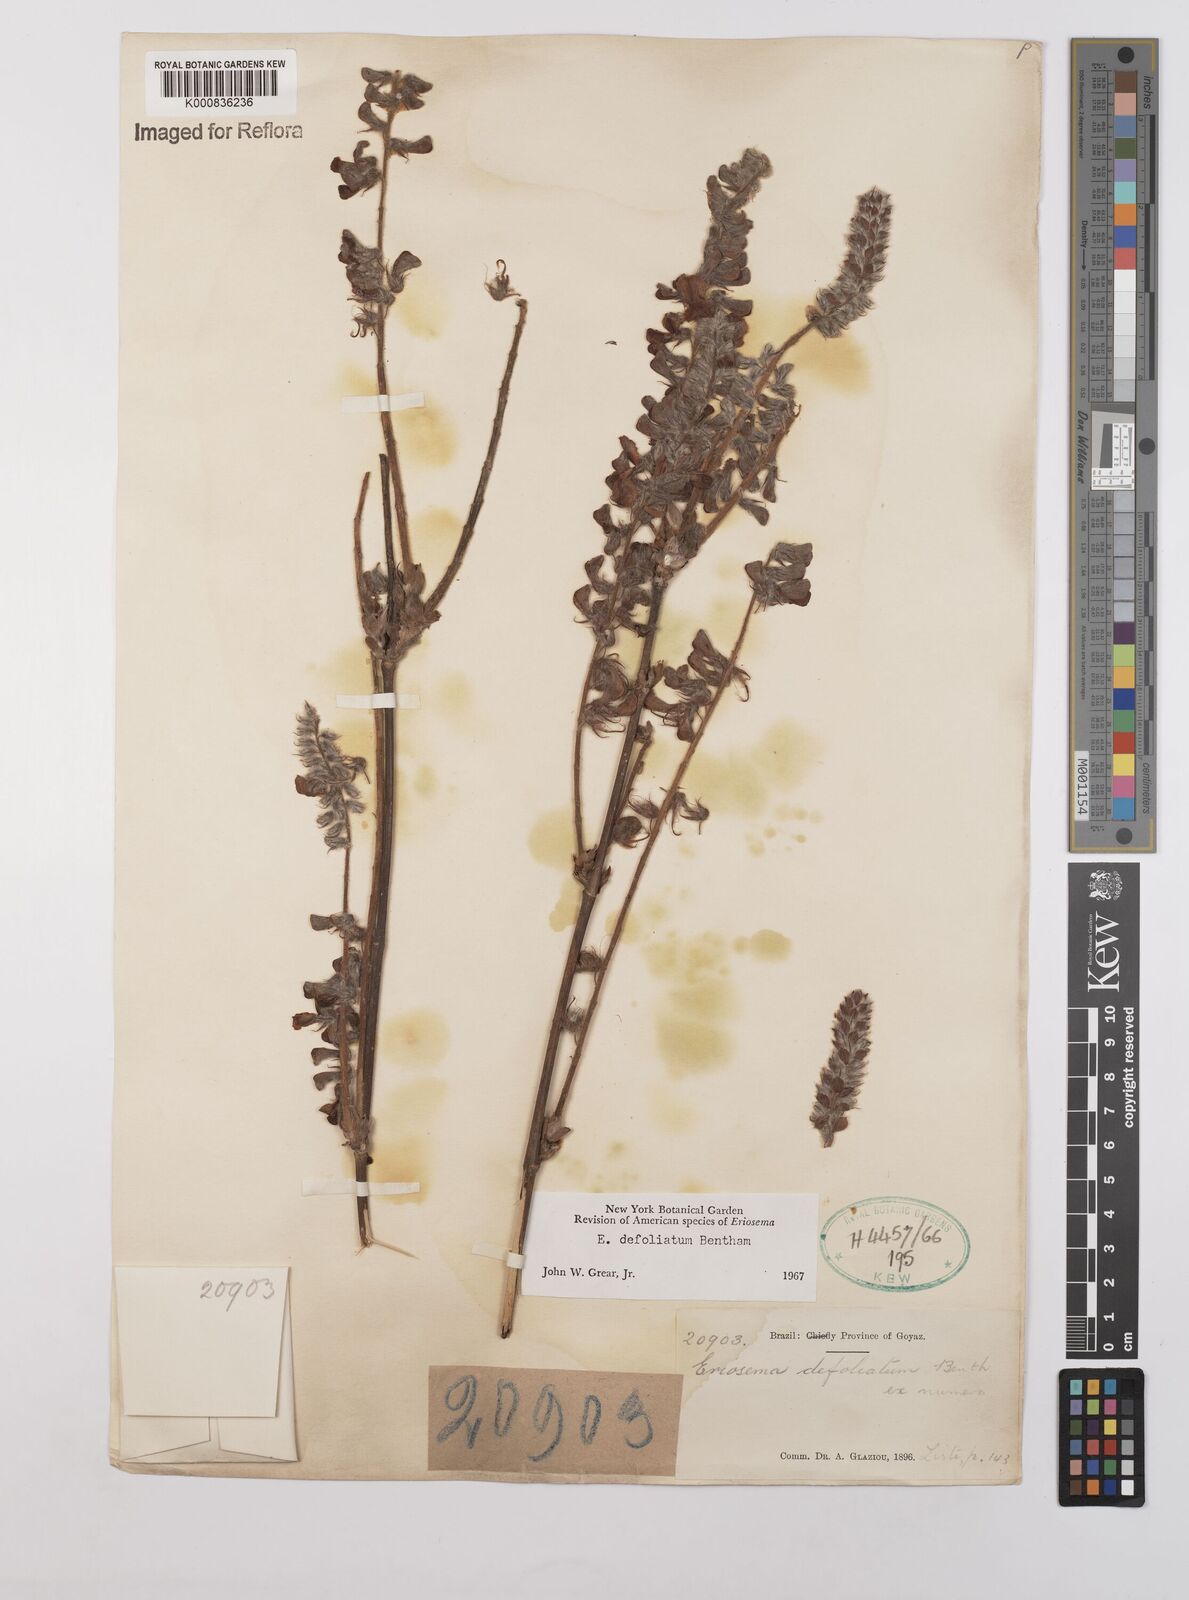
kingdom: Plantae
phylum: Tracheophyta
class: Magnoliopsida
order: Fabales
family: Fabaceae
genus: Eriosema
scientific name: Eriosema defoliatum
